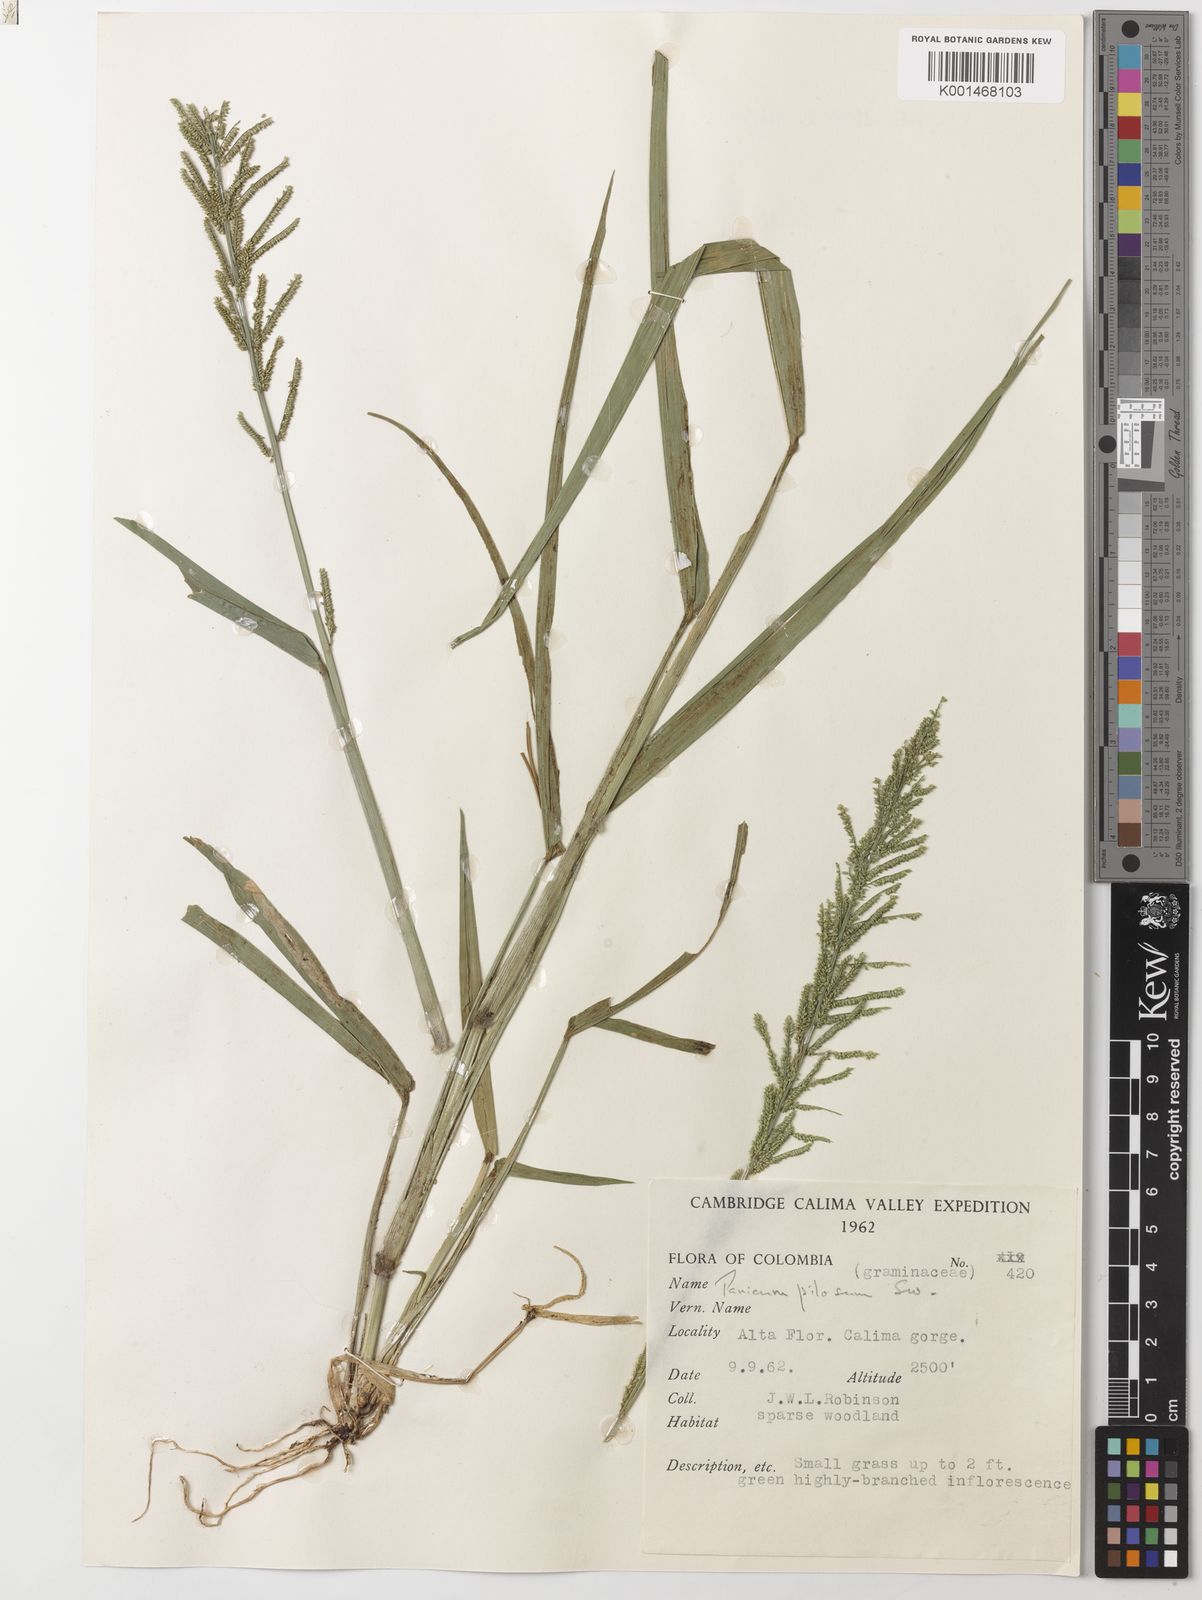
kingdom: Plantae
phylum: Tracheophyta
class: Liliopsida
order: Poales
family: Poaceae
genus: Rugoloa
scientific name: Rugoloa pilosa
